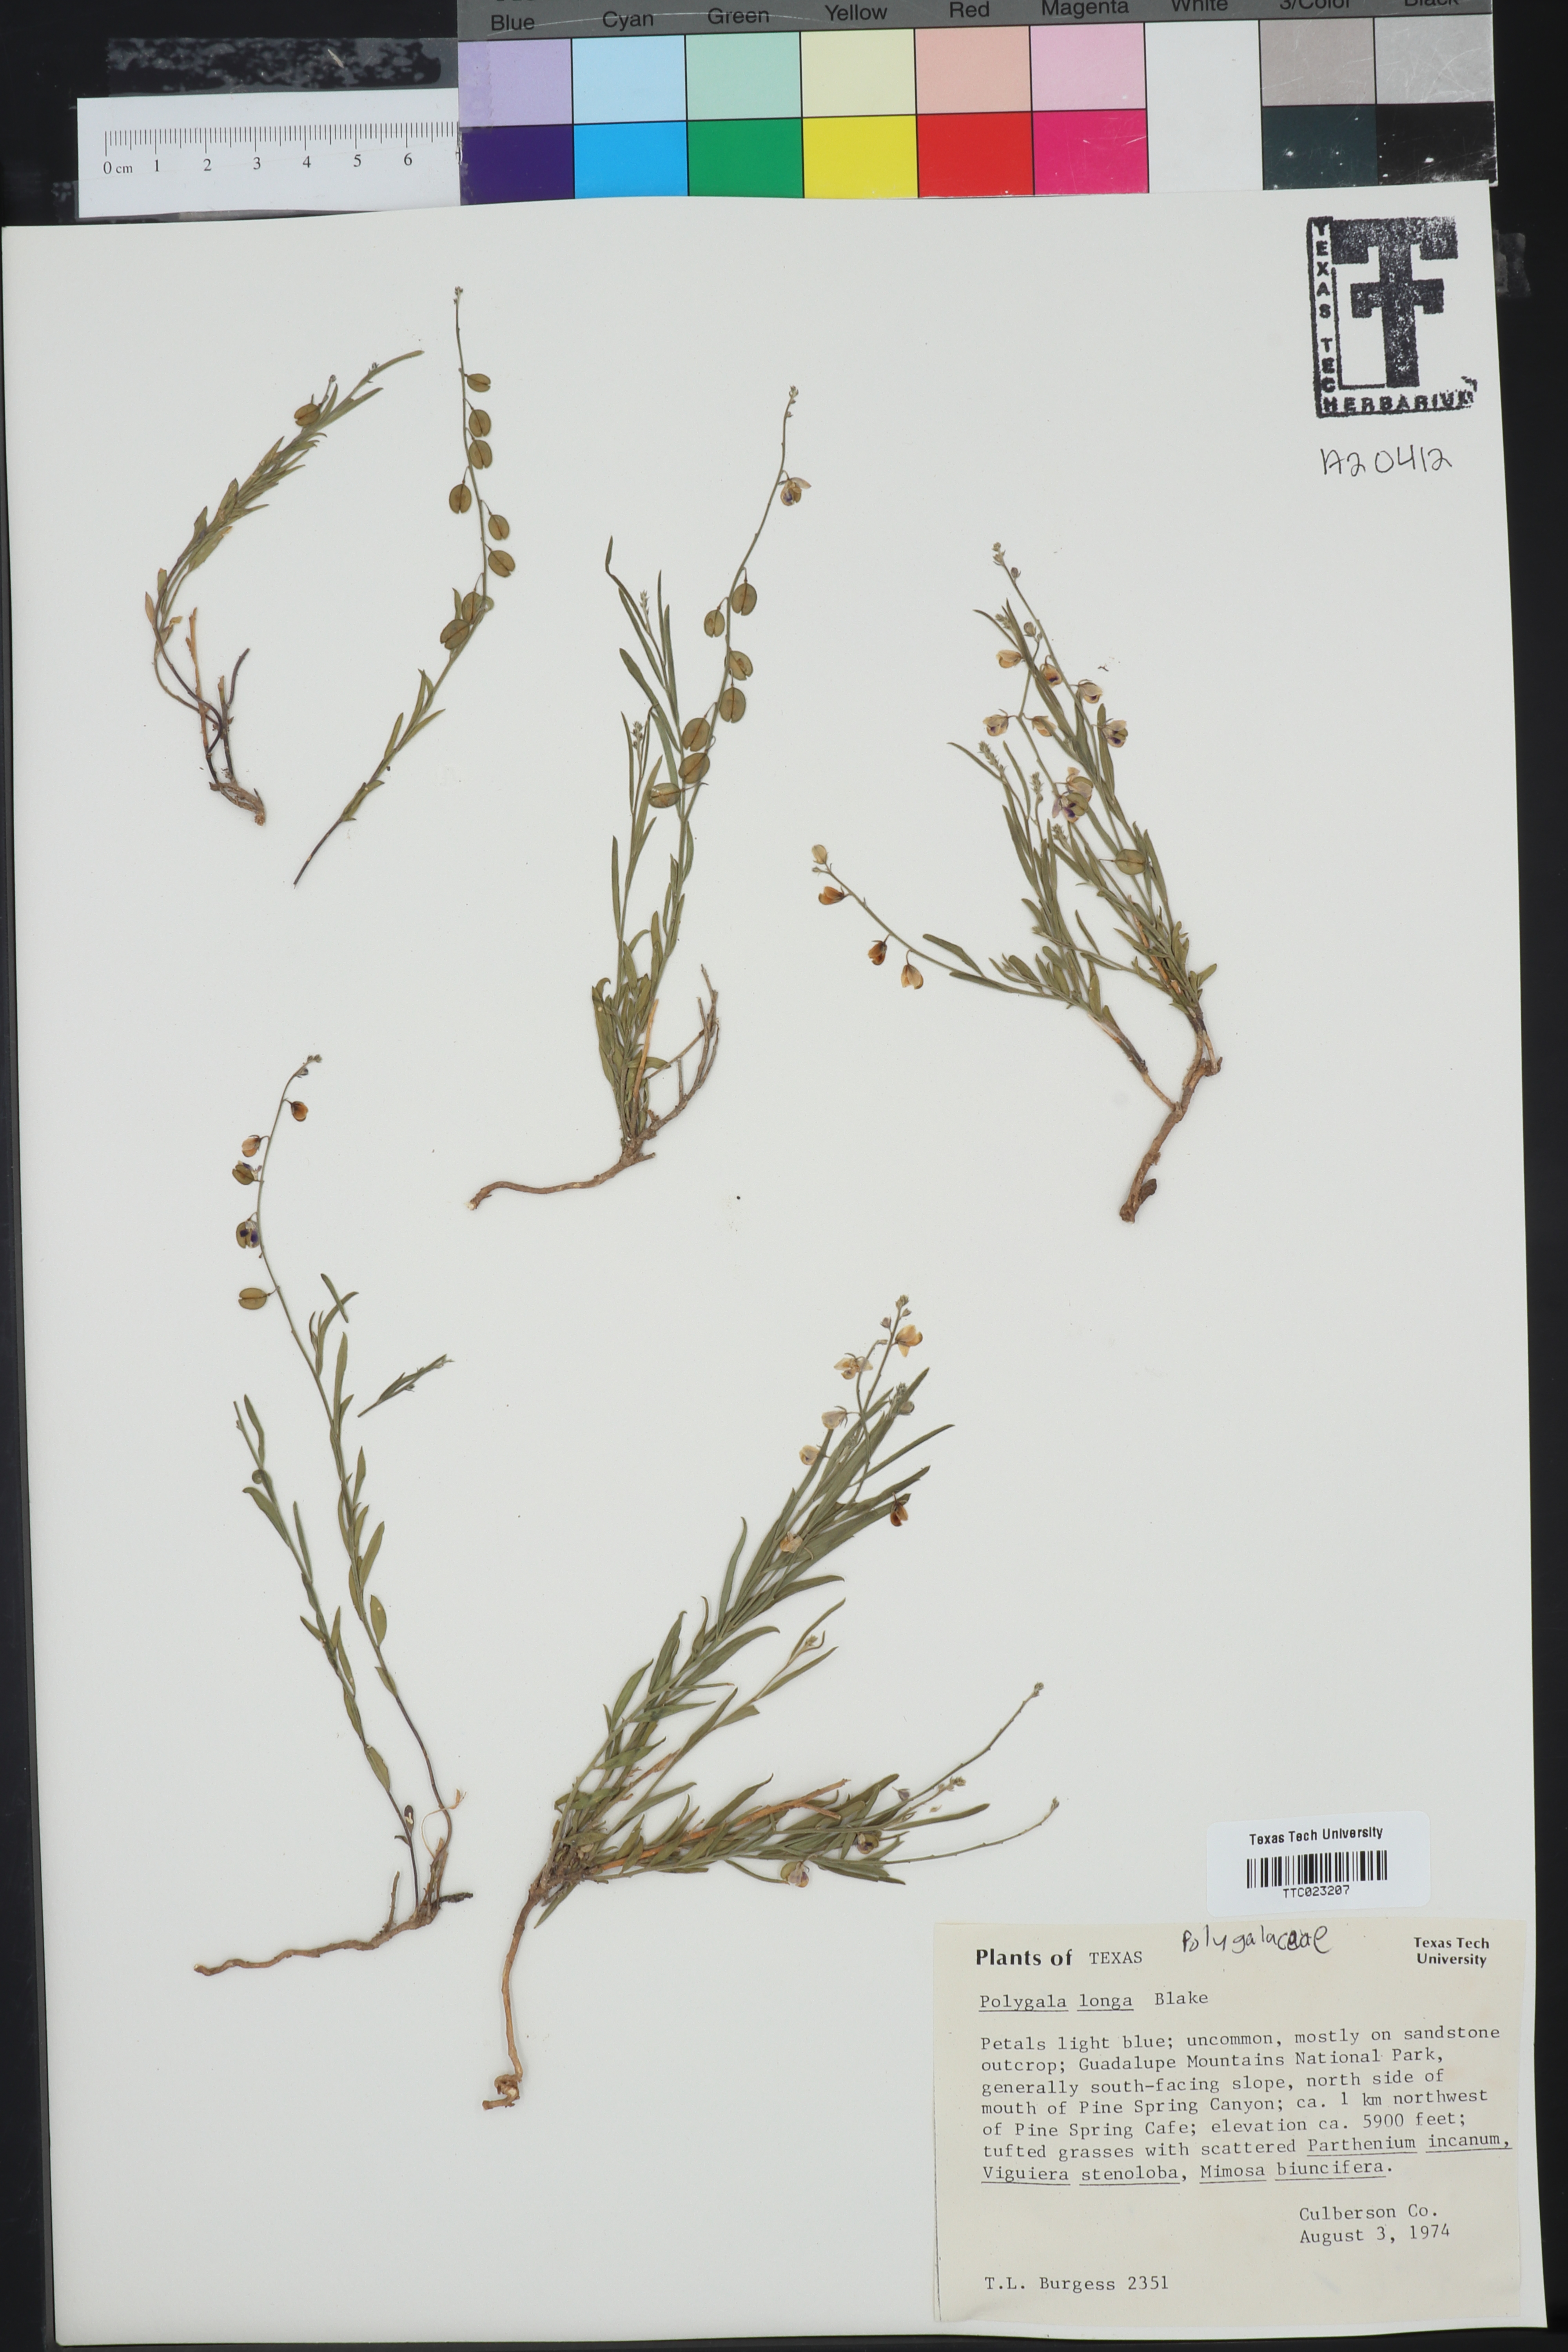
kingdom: Plantae
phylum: Tracheophyta
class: Magnoliopsida
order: Fabales
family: Polygalaceae
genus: Hebecarpa
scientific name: Hebecarpa barbeyana
